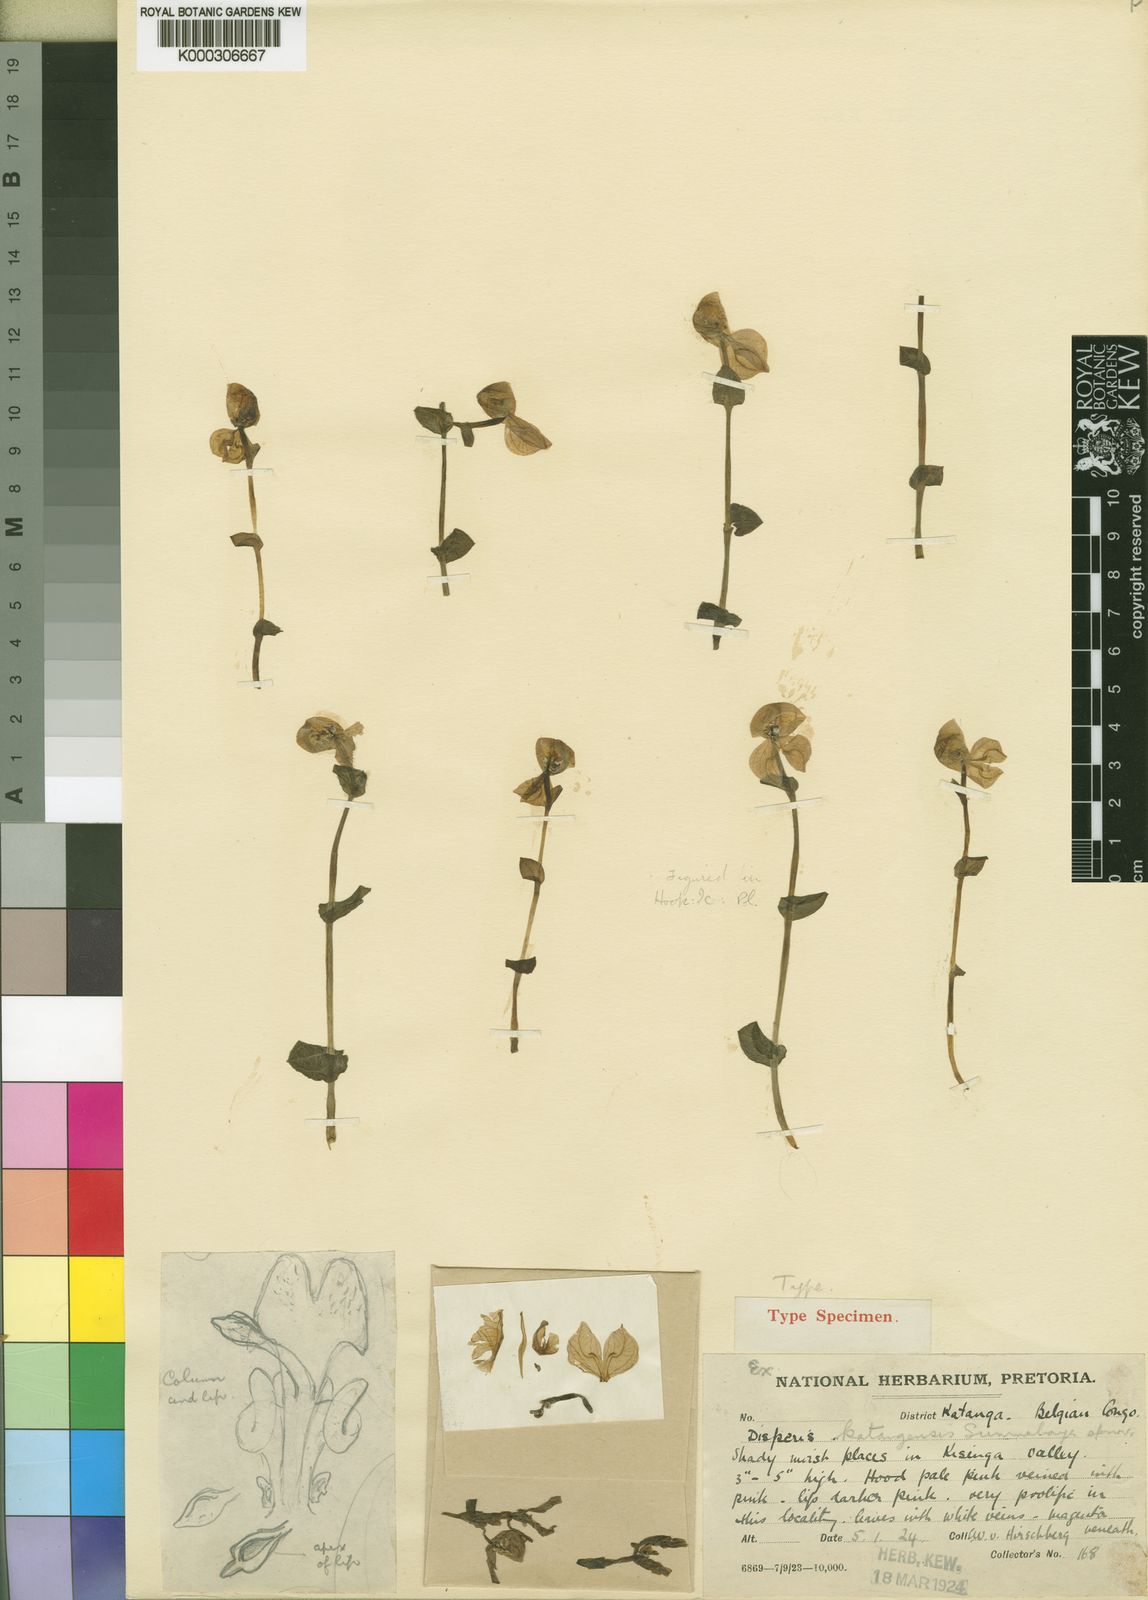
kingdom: Plantae
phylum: Tracheophyta
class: Liliopsida
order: Asparagales
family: Orchidaceae
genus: Disperis
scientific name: Disperis katangensis
